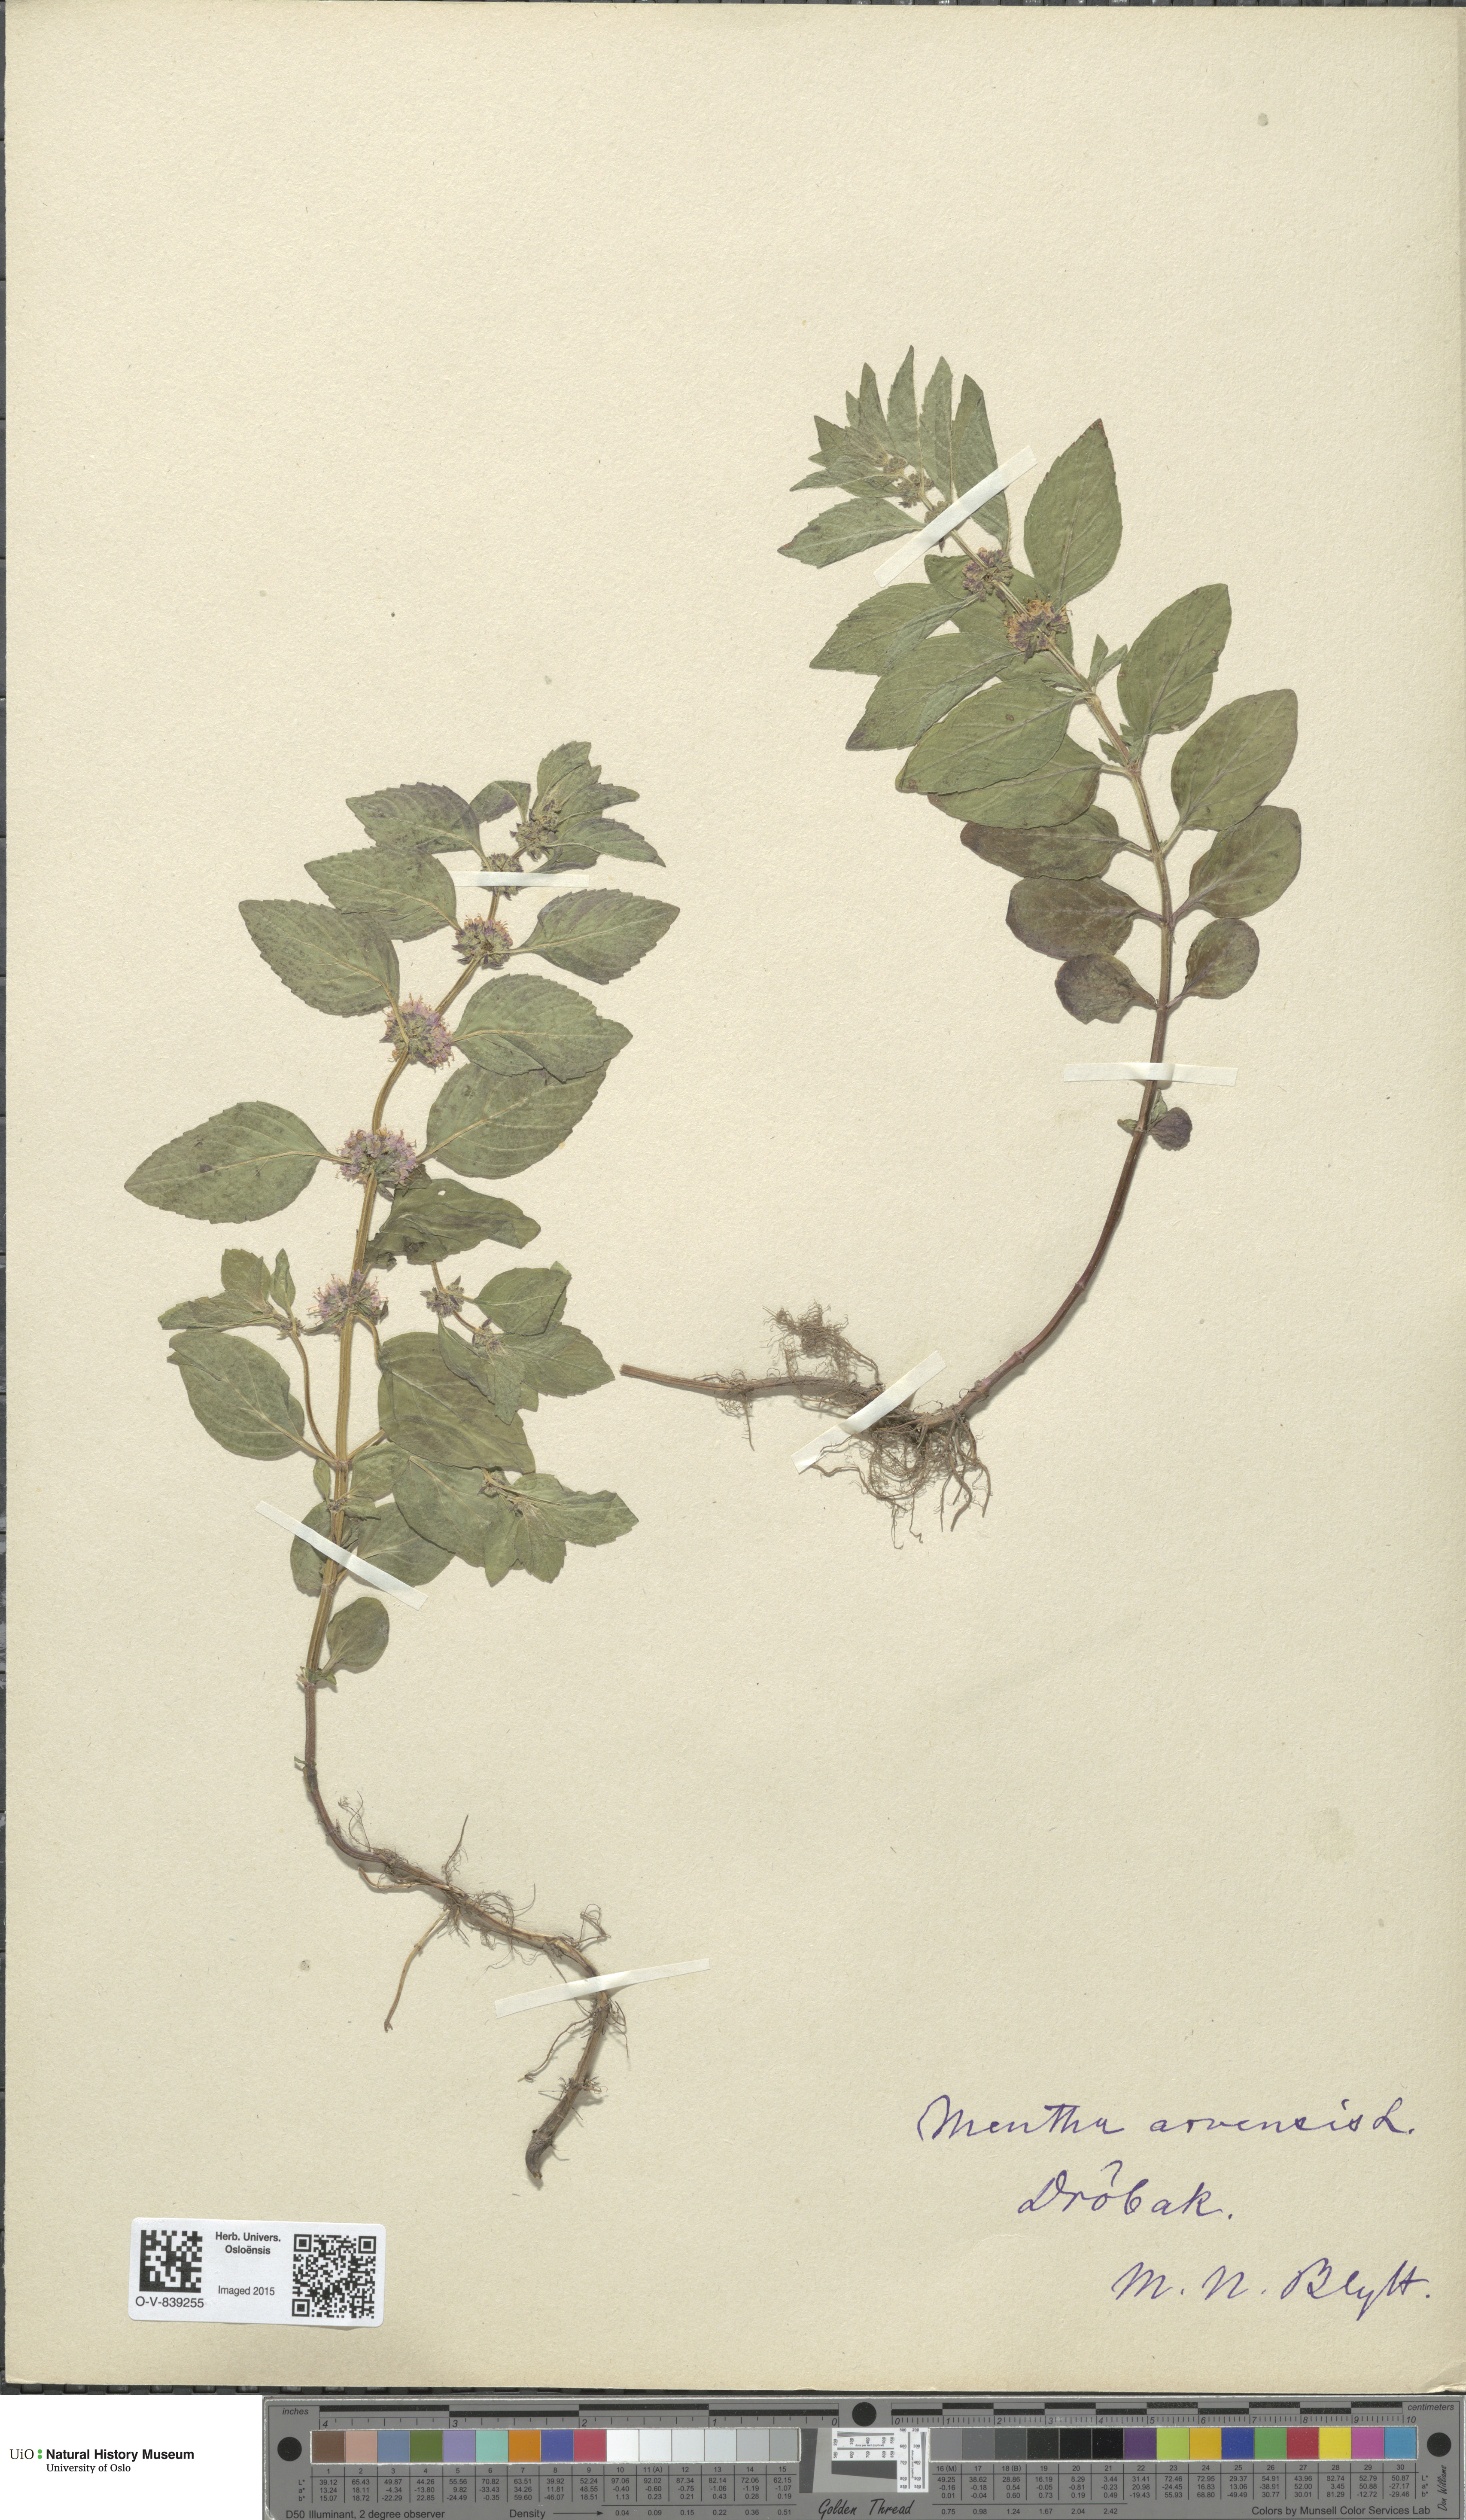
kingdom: Plantae
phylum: Tracheophyta
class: Magnoliopsida
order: Lamiales
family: Lamiaceae
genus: Mentha
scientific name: Mentha arvensis
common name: Corn mint
